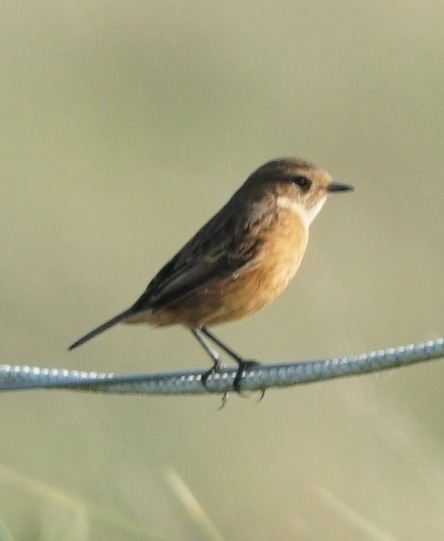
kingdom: Animalia
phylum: Chordata
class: Aves
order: Passeriformes
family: Muscicapidae
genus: Saxicola
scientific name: Saxicola rubicola
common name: Sortstrubet bynkefugl
